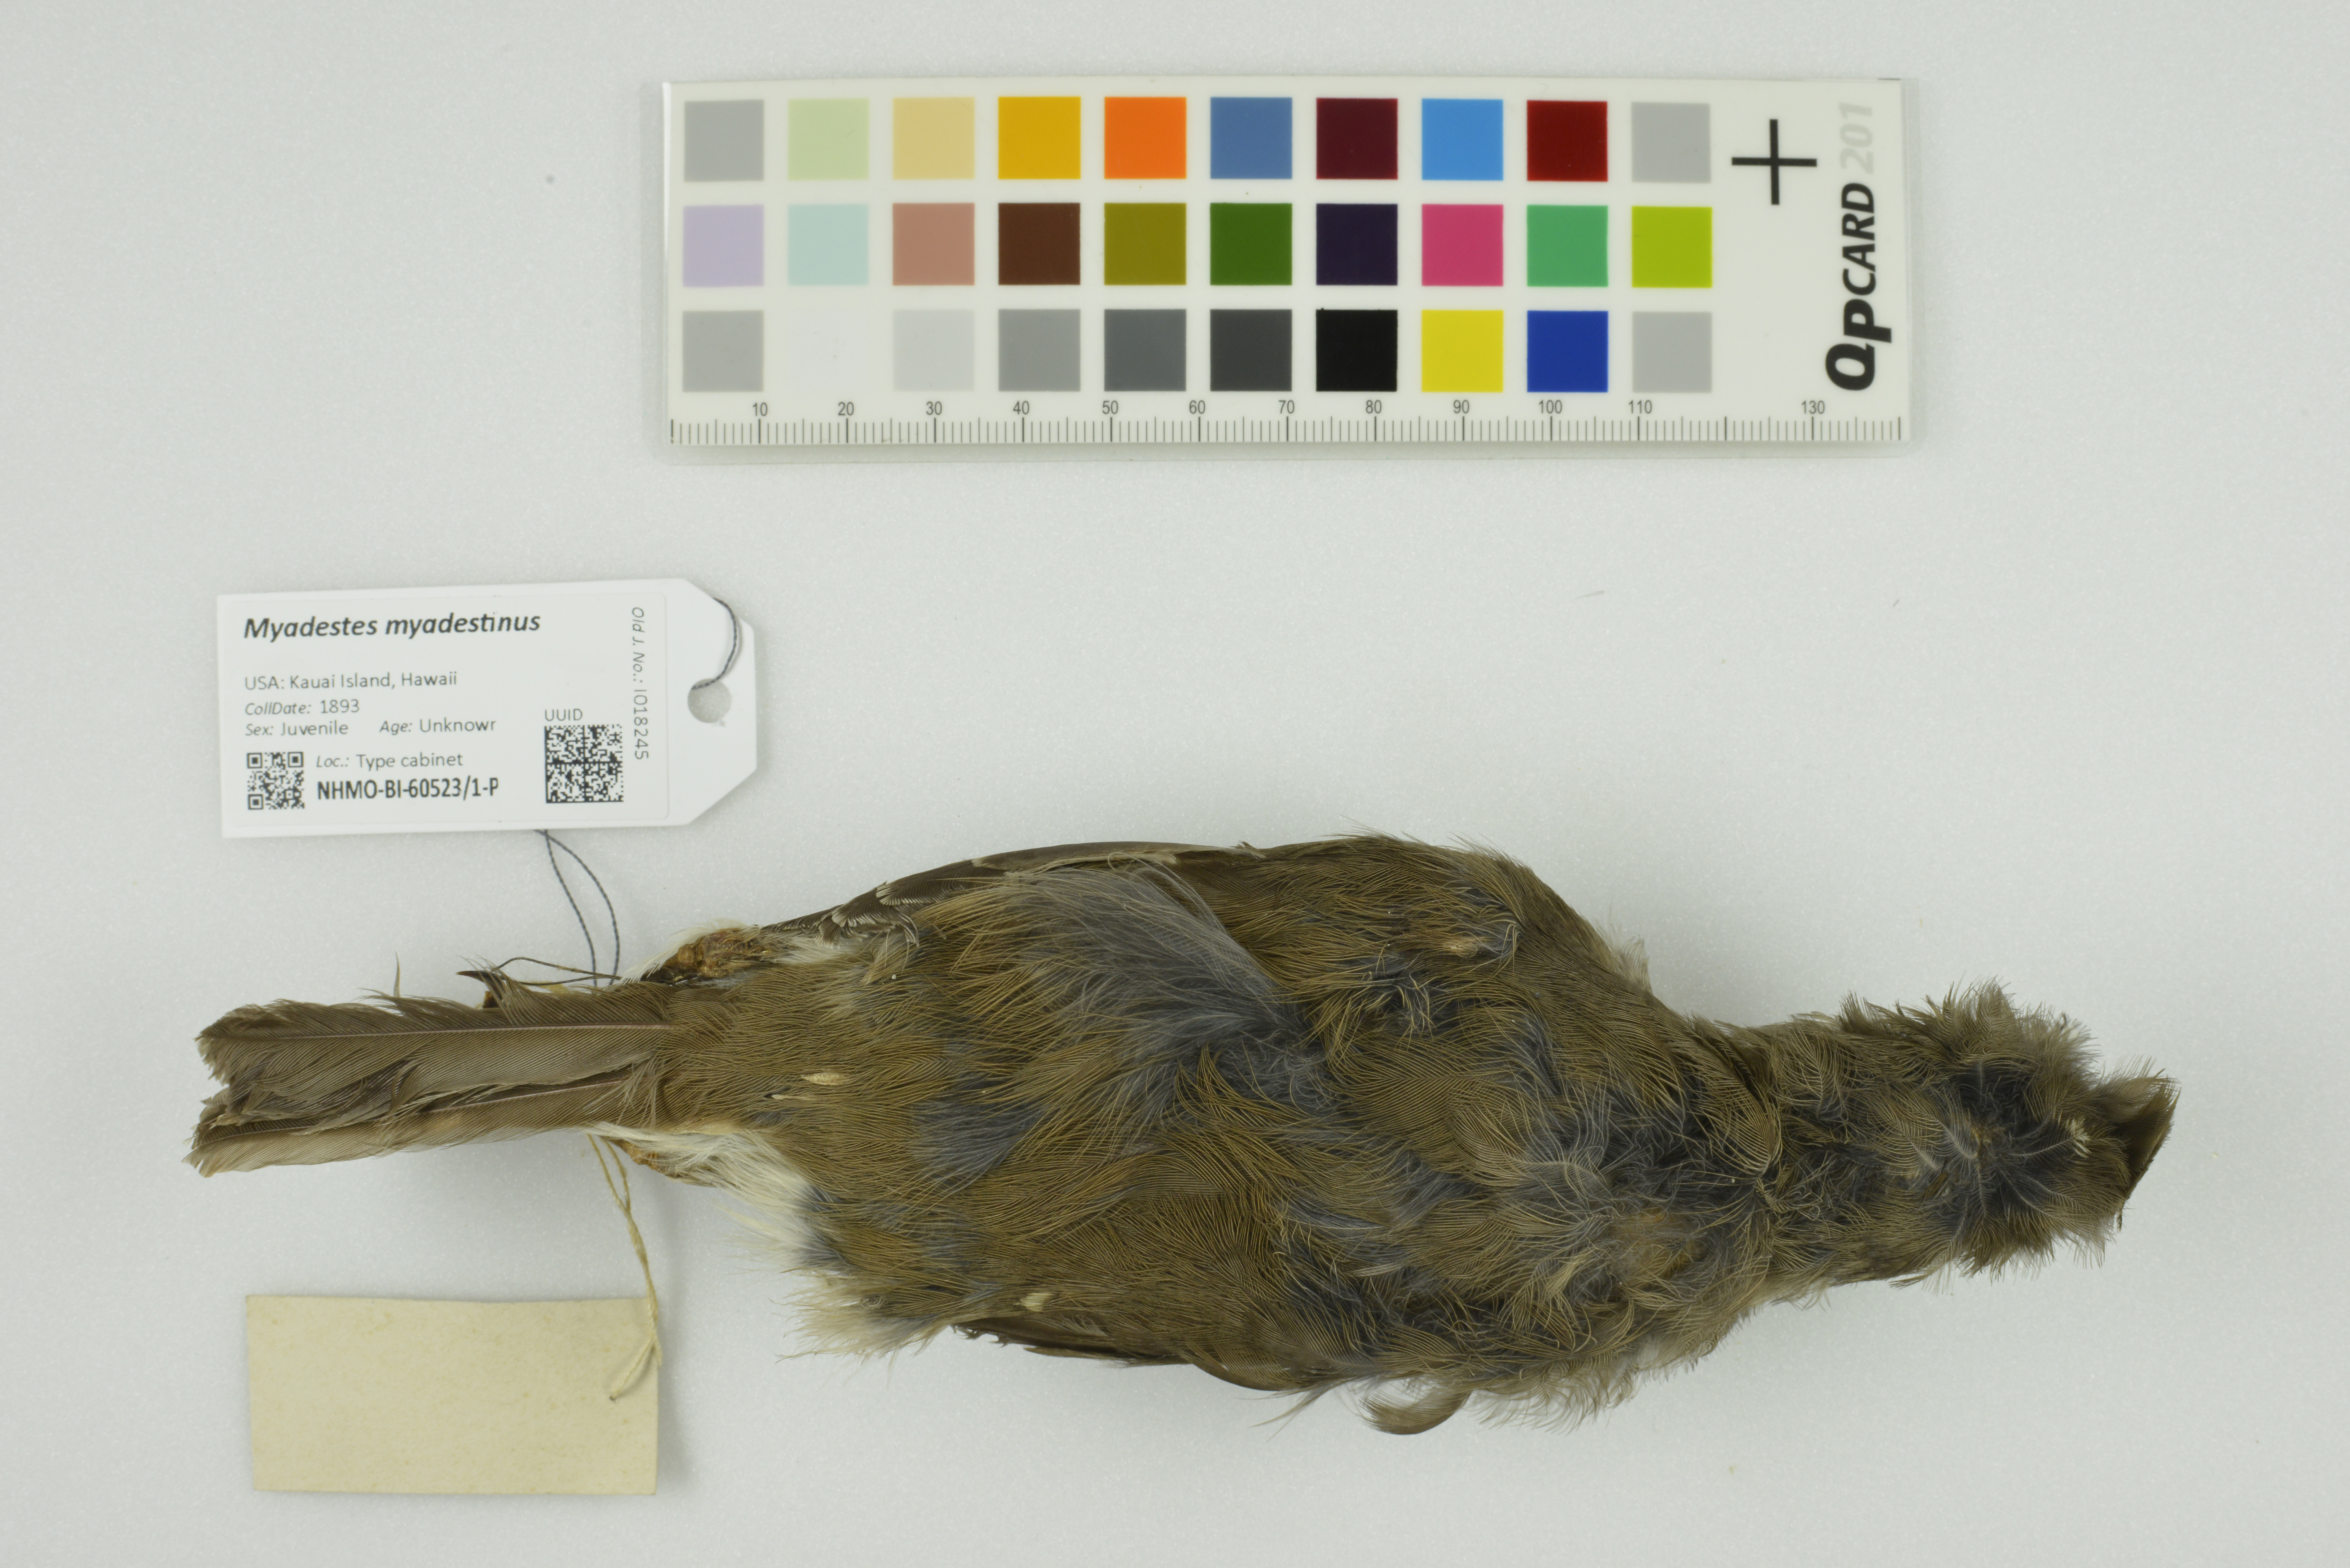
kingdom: Animalia
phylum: Chordata
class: Aves
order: Passeriformes
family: Turdidae
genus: Myadestes
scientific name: Myadestes myadestinus
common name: Kamao
